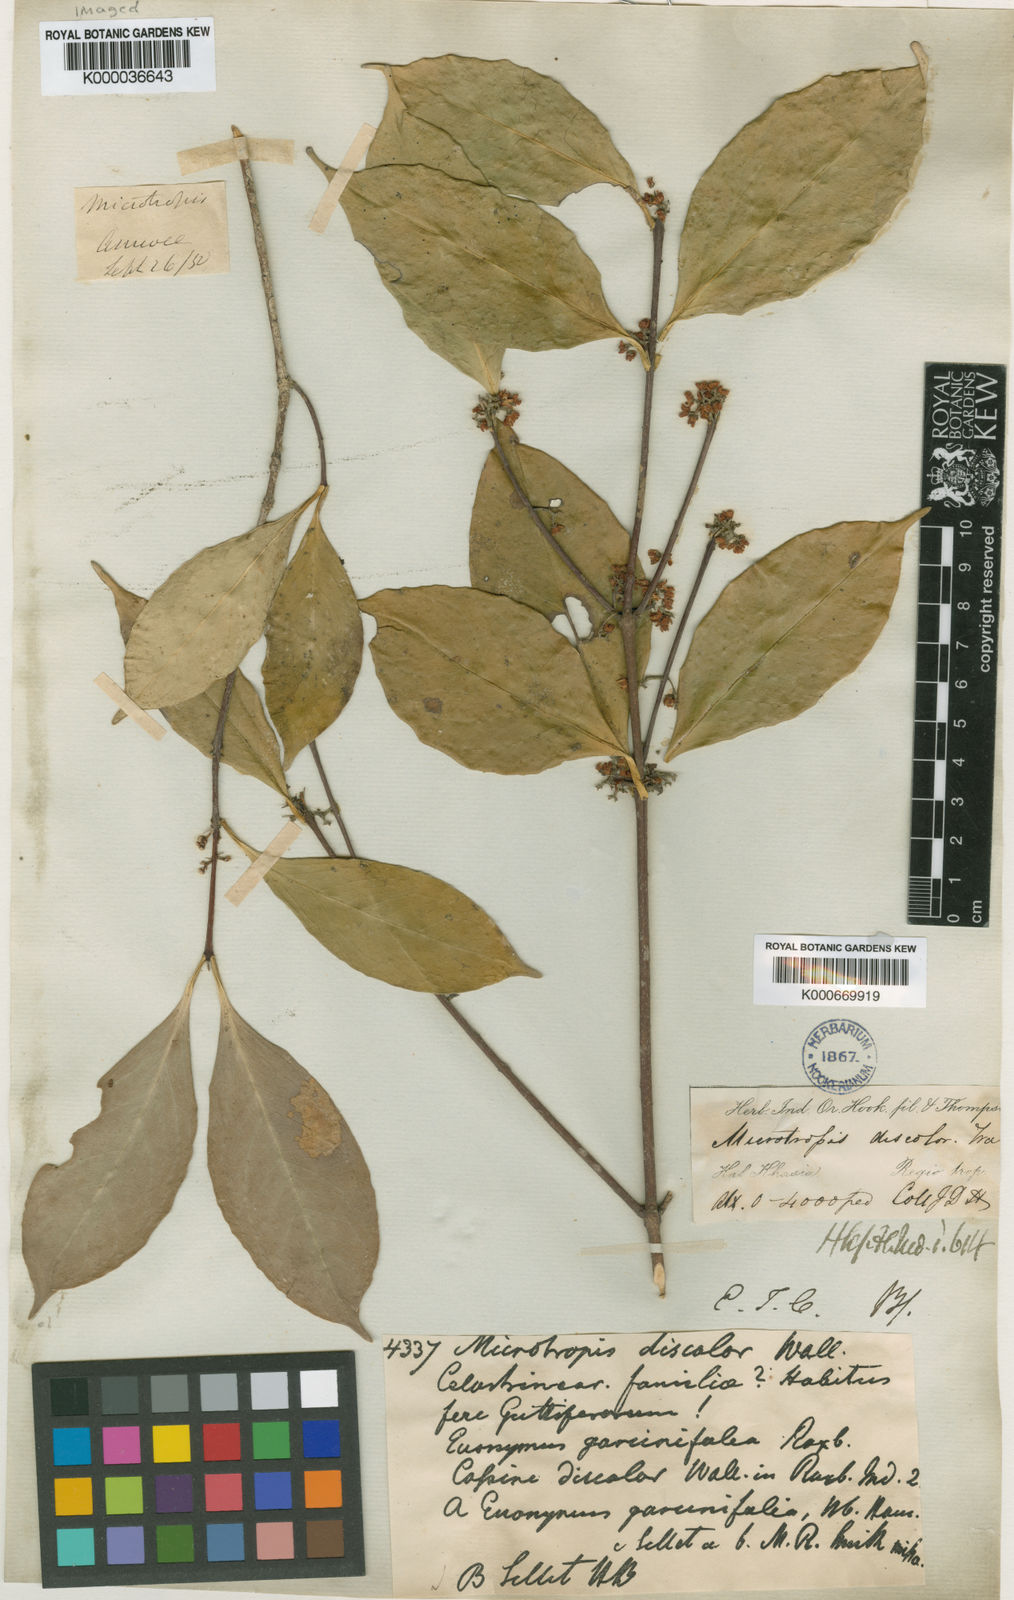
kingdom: Plantae
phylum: Tracheophyta
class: Magnoliopsida
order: Celastrales
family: Celastraceae
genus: Microtropis
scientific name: Microtropis
